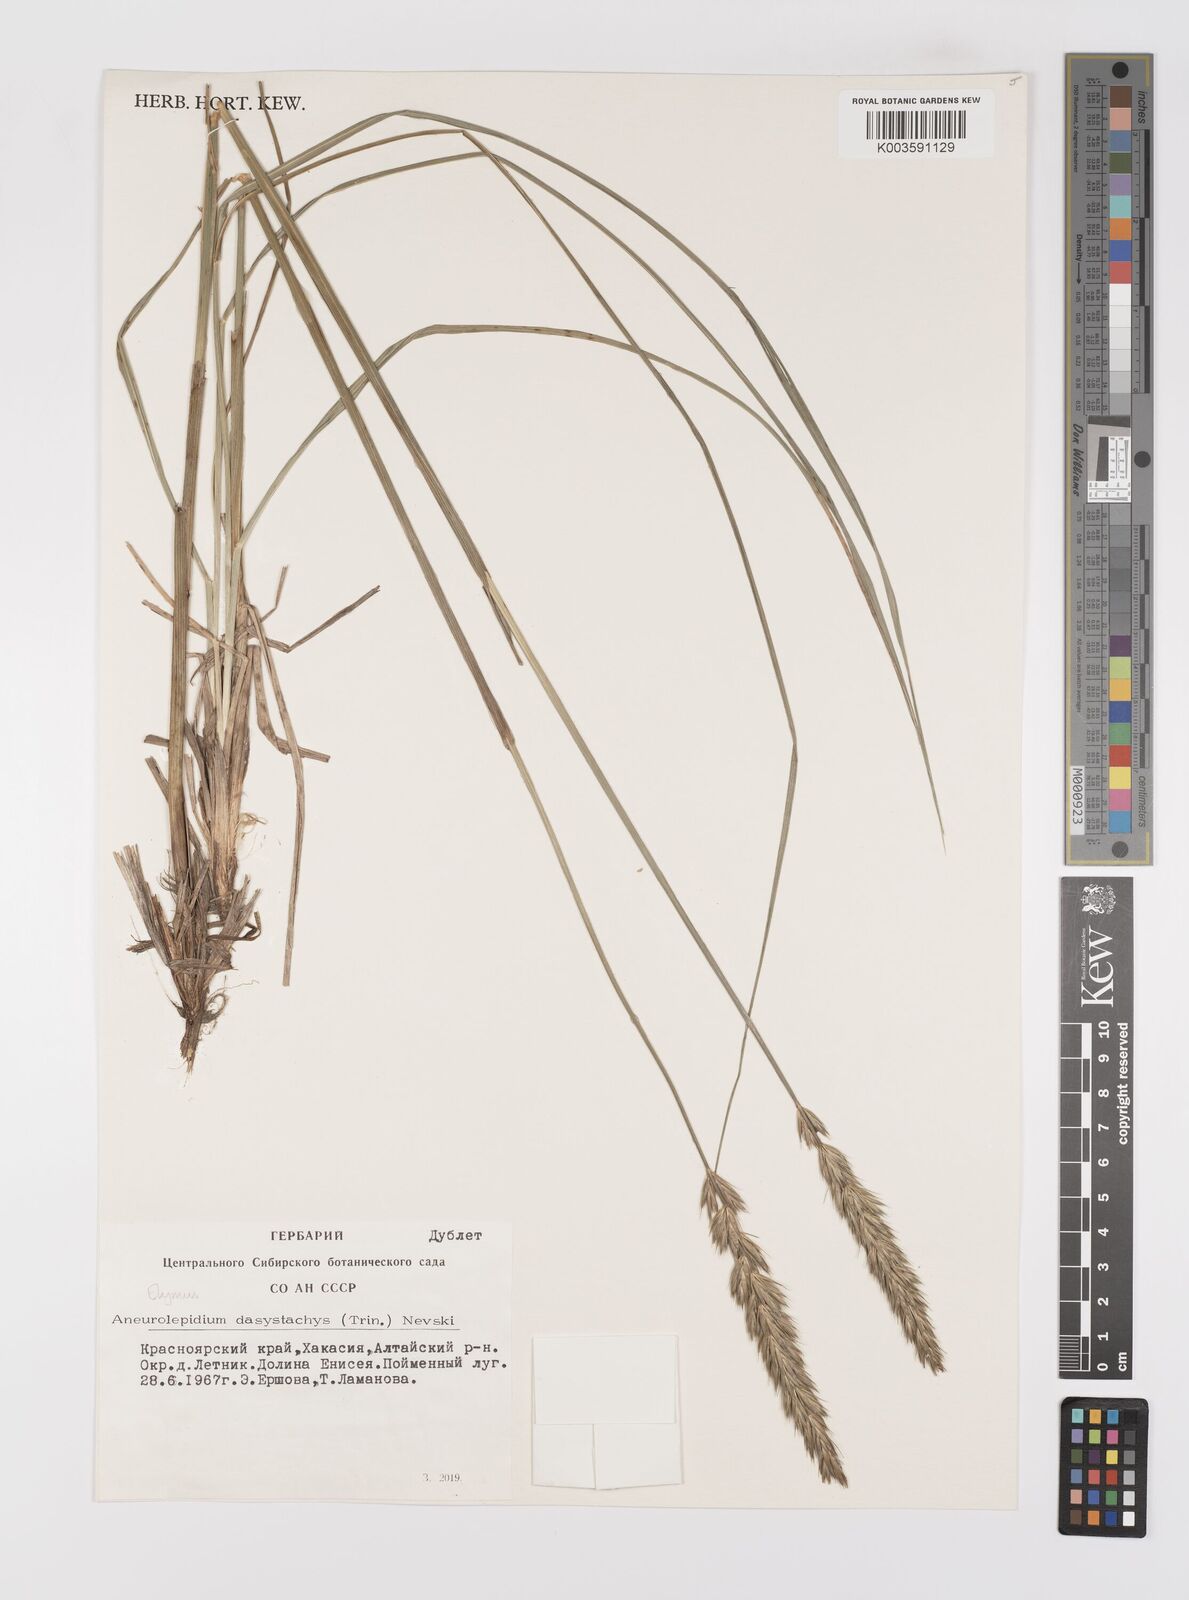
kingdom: Plantae
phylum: Tracheophyta
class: Liliopsida
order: Poales
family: Poaceae
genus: Leymus
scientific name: Leymus secalinus
